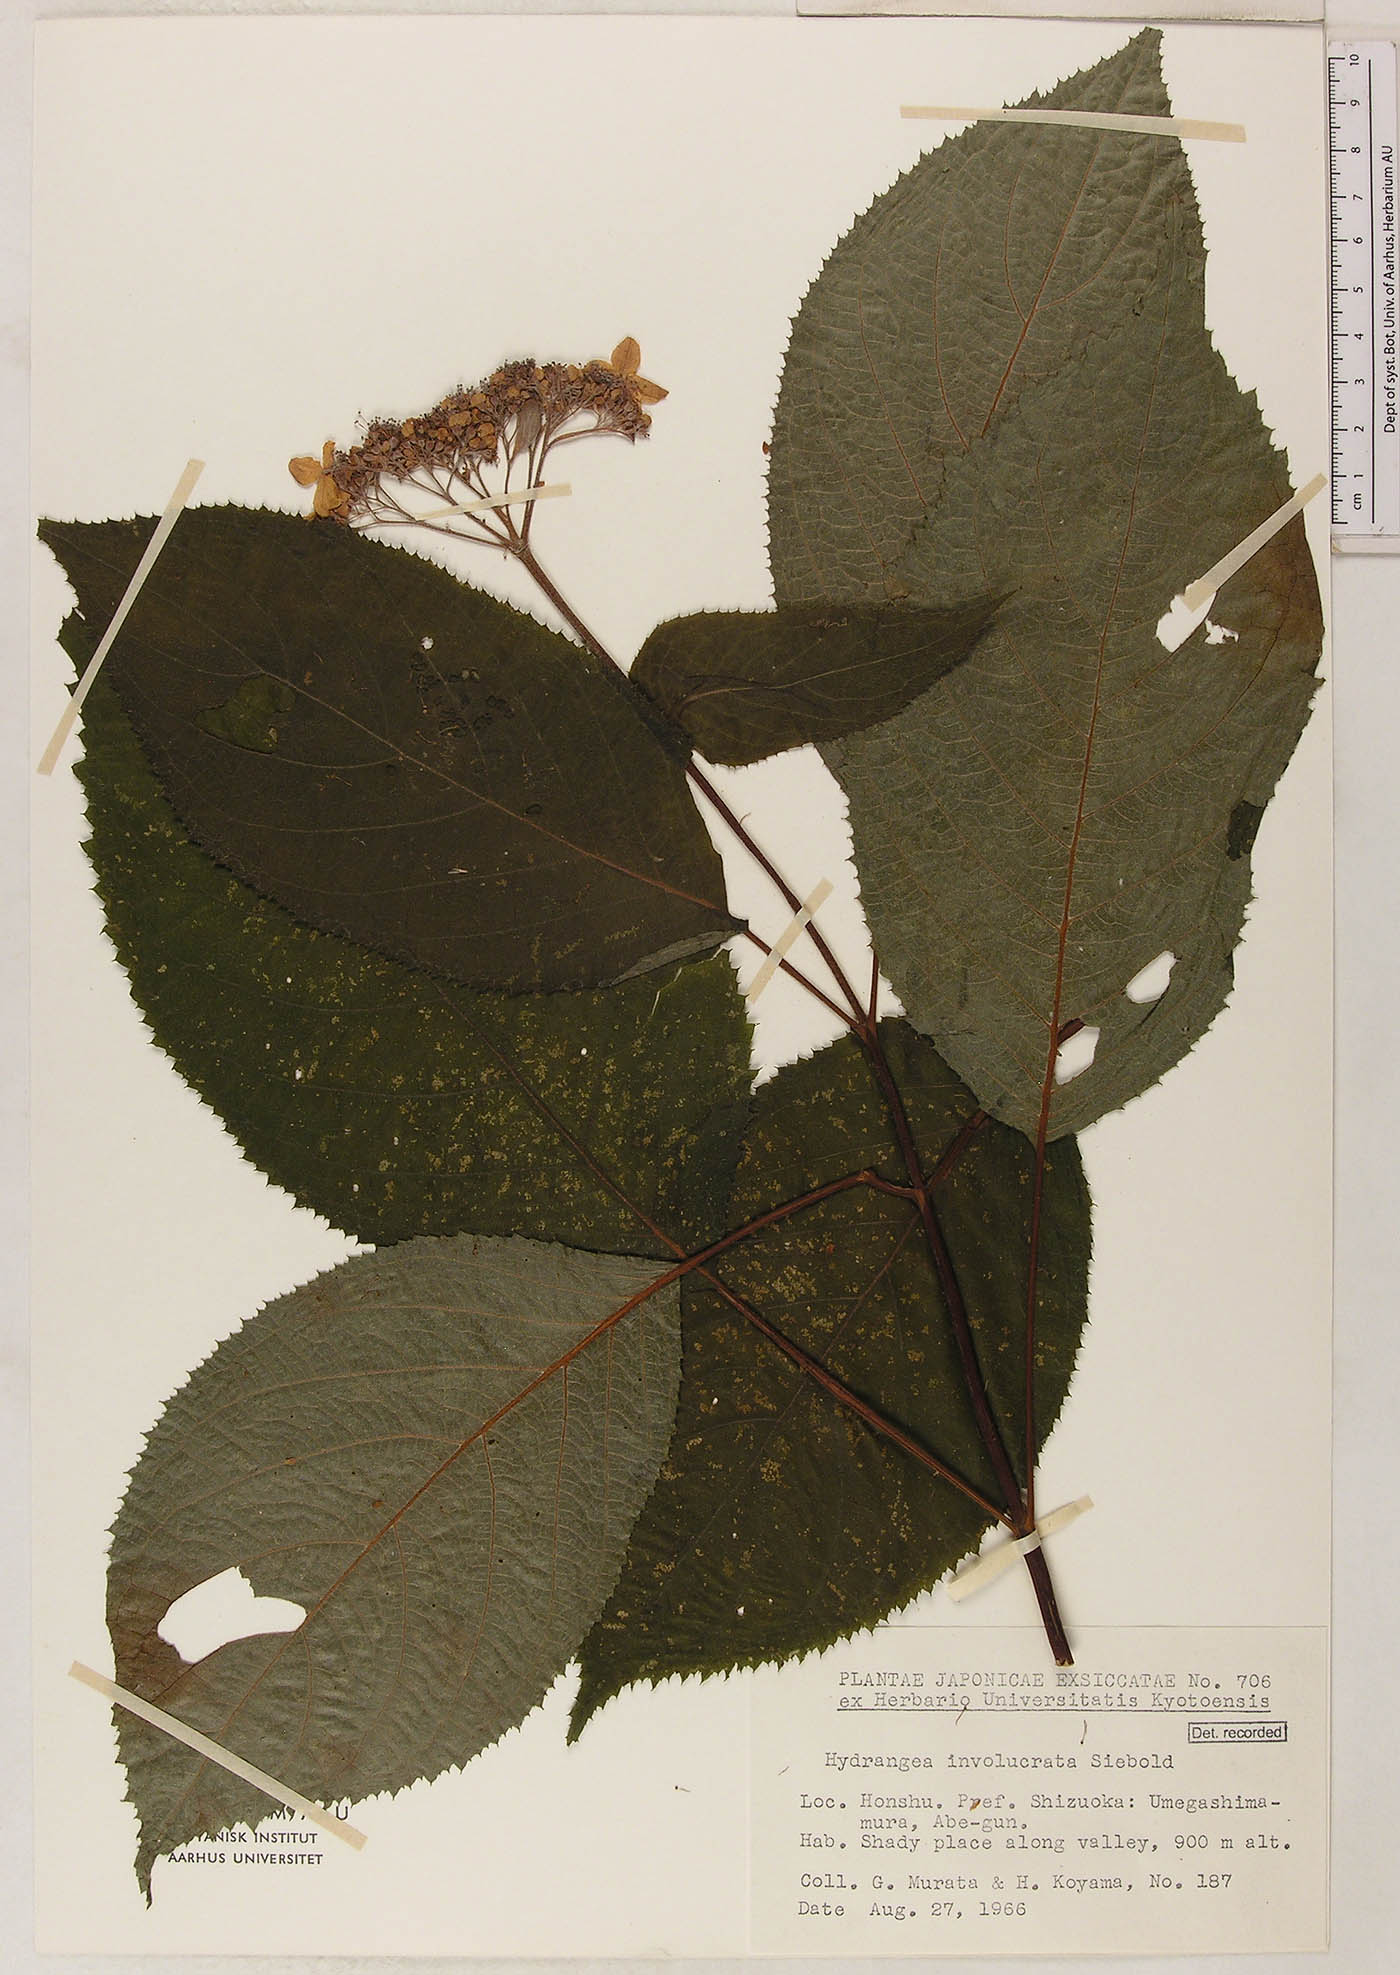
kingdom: Plantae
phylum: Tracheophyta
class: Magnoliopsida
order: Cornales
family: Hydrangeaceae
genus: Hydrangea
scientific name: Hydrangea involucrata
